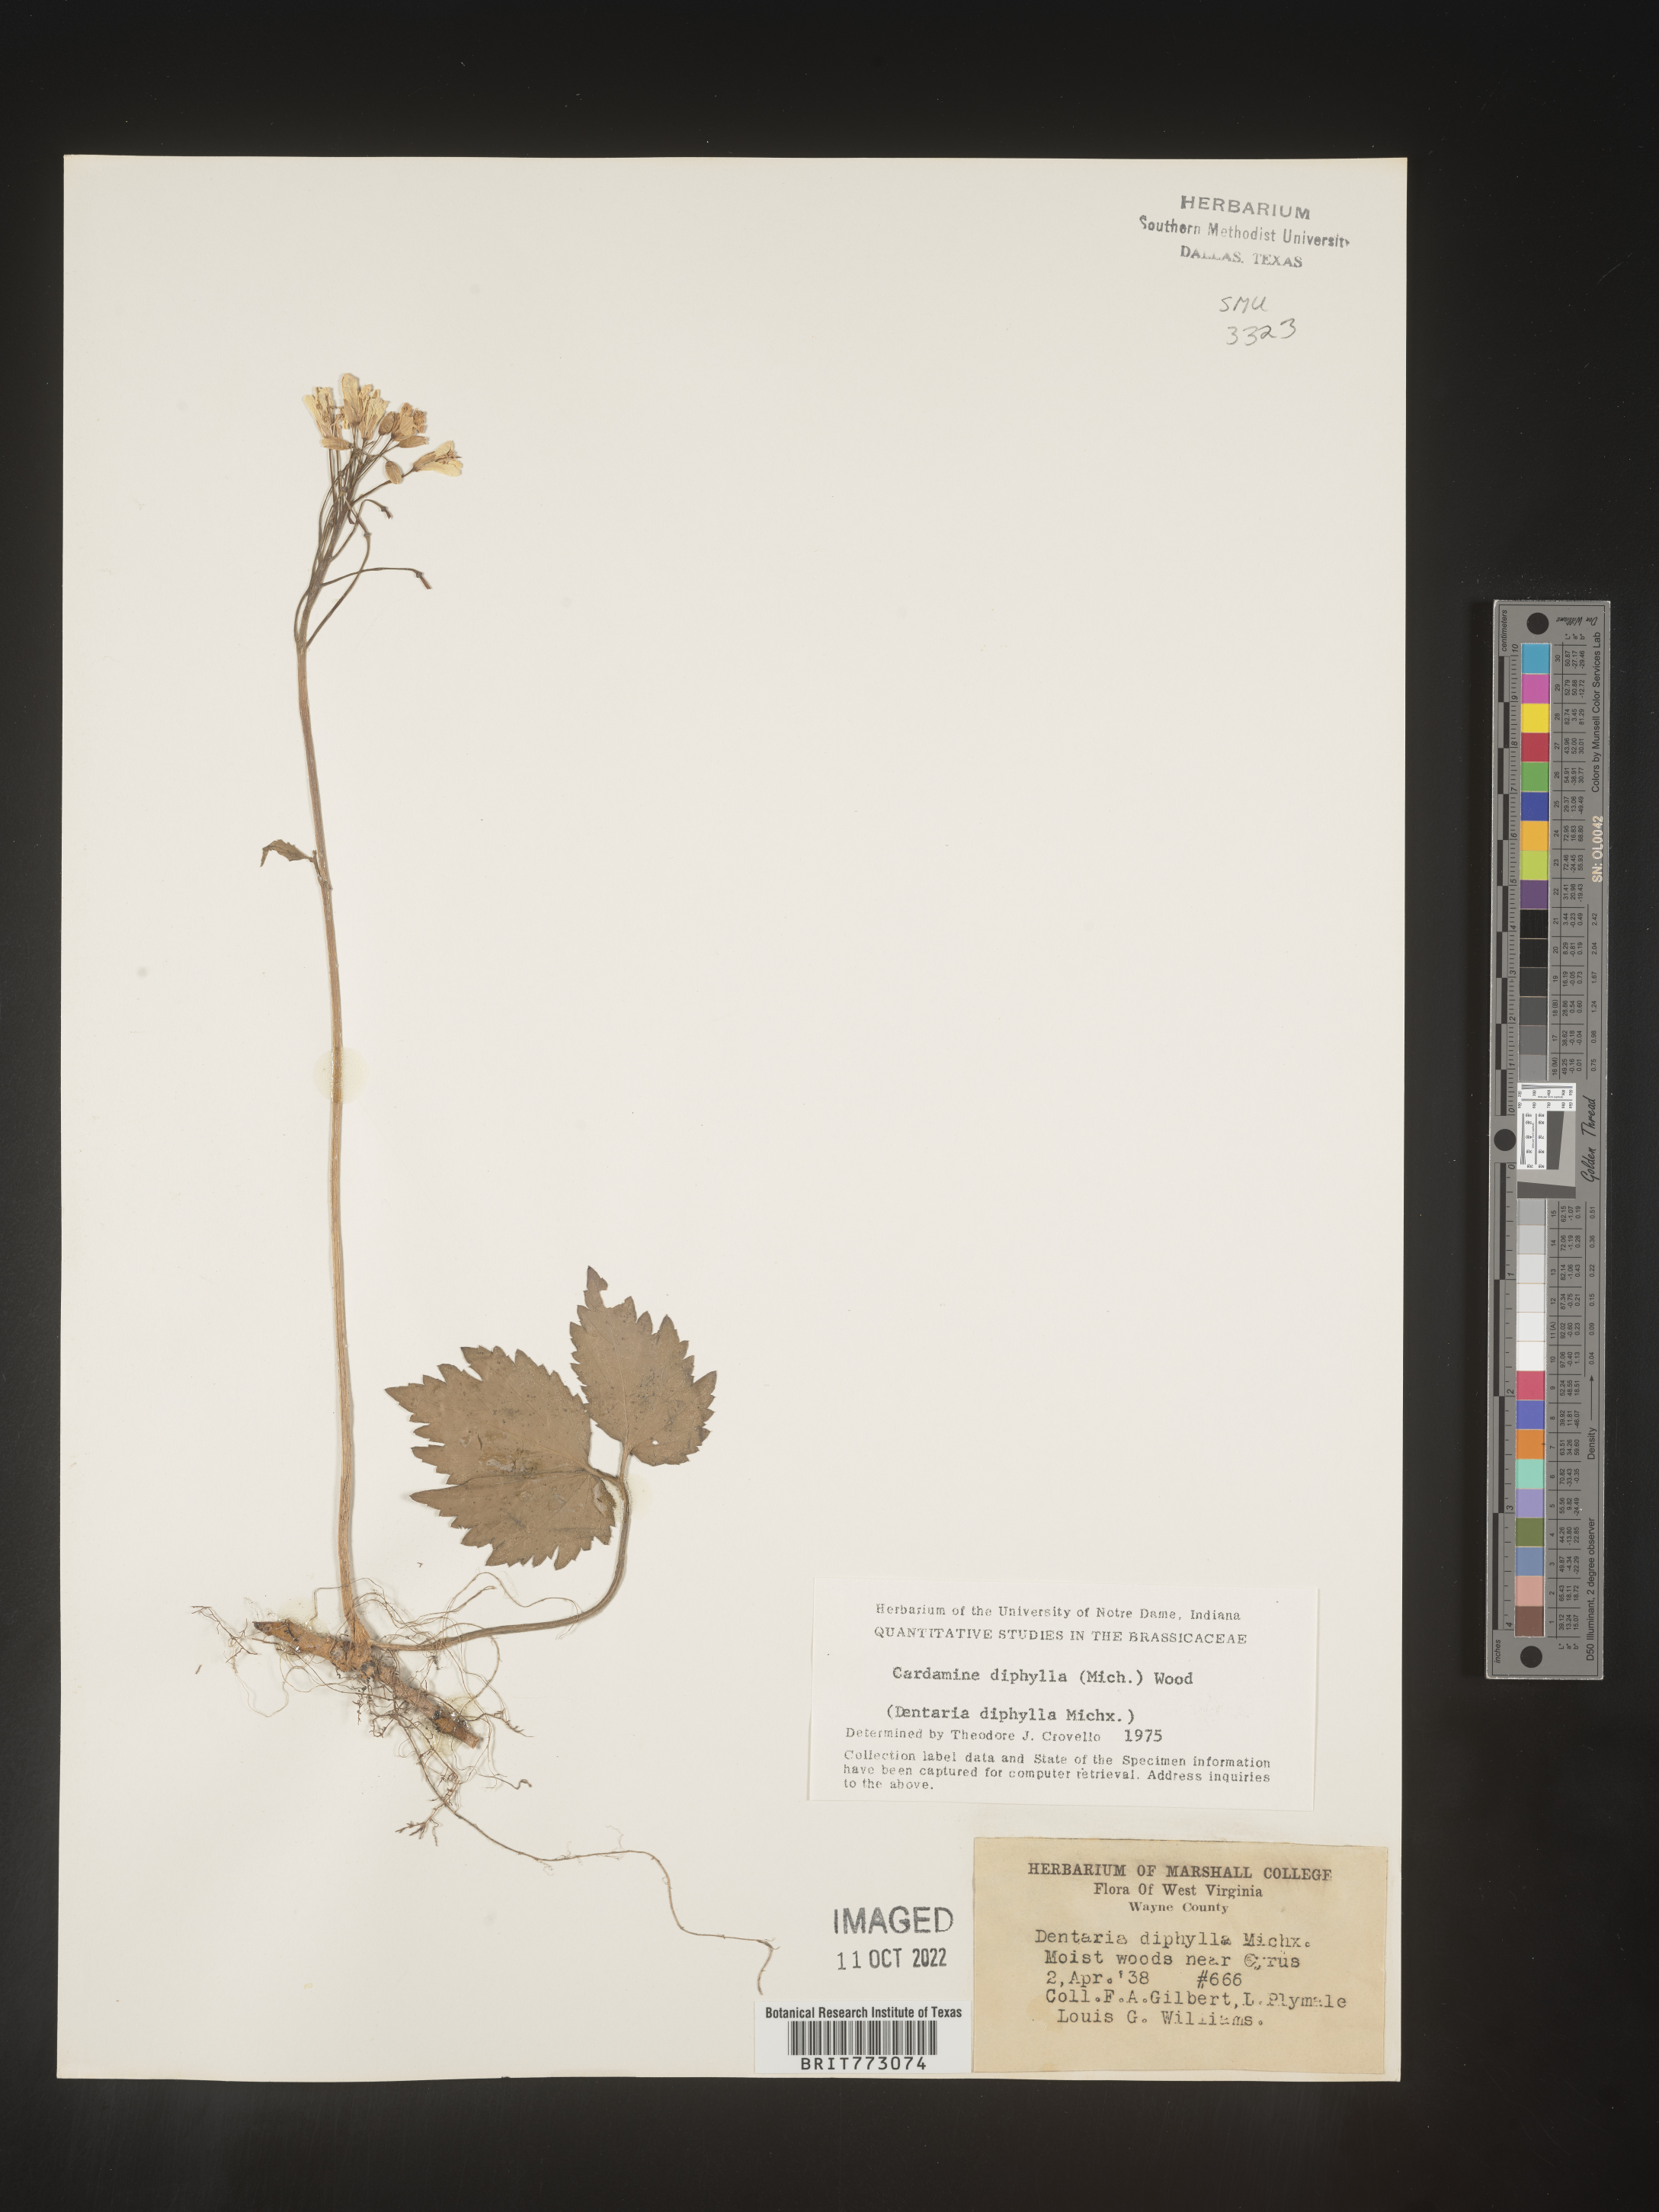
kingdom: Plantae
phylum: Tracheophyta
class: Magnoliopsida
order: Brassicales
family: Brassicaceae
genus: Cardamine
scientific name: Cardamine diphylla
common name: Broad-leaved toothwort
